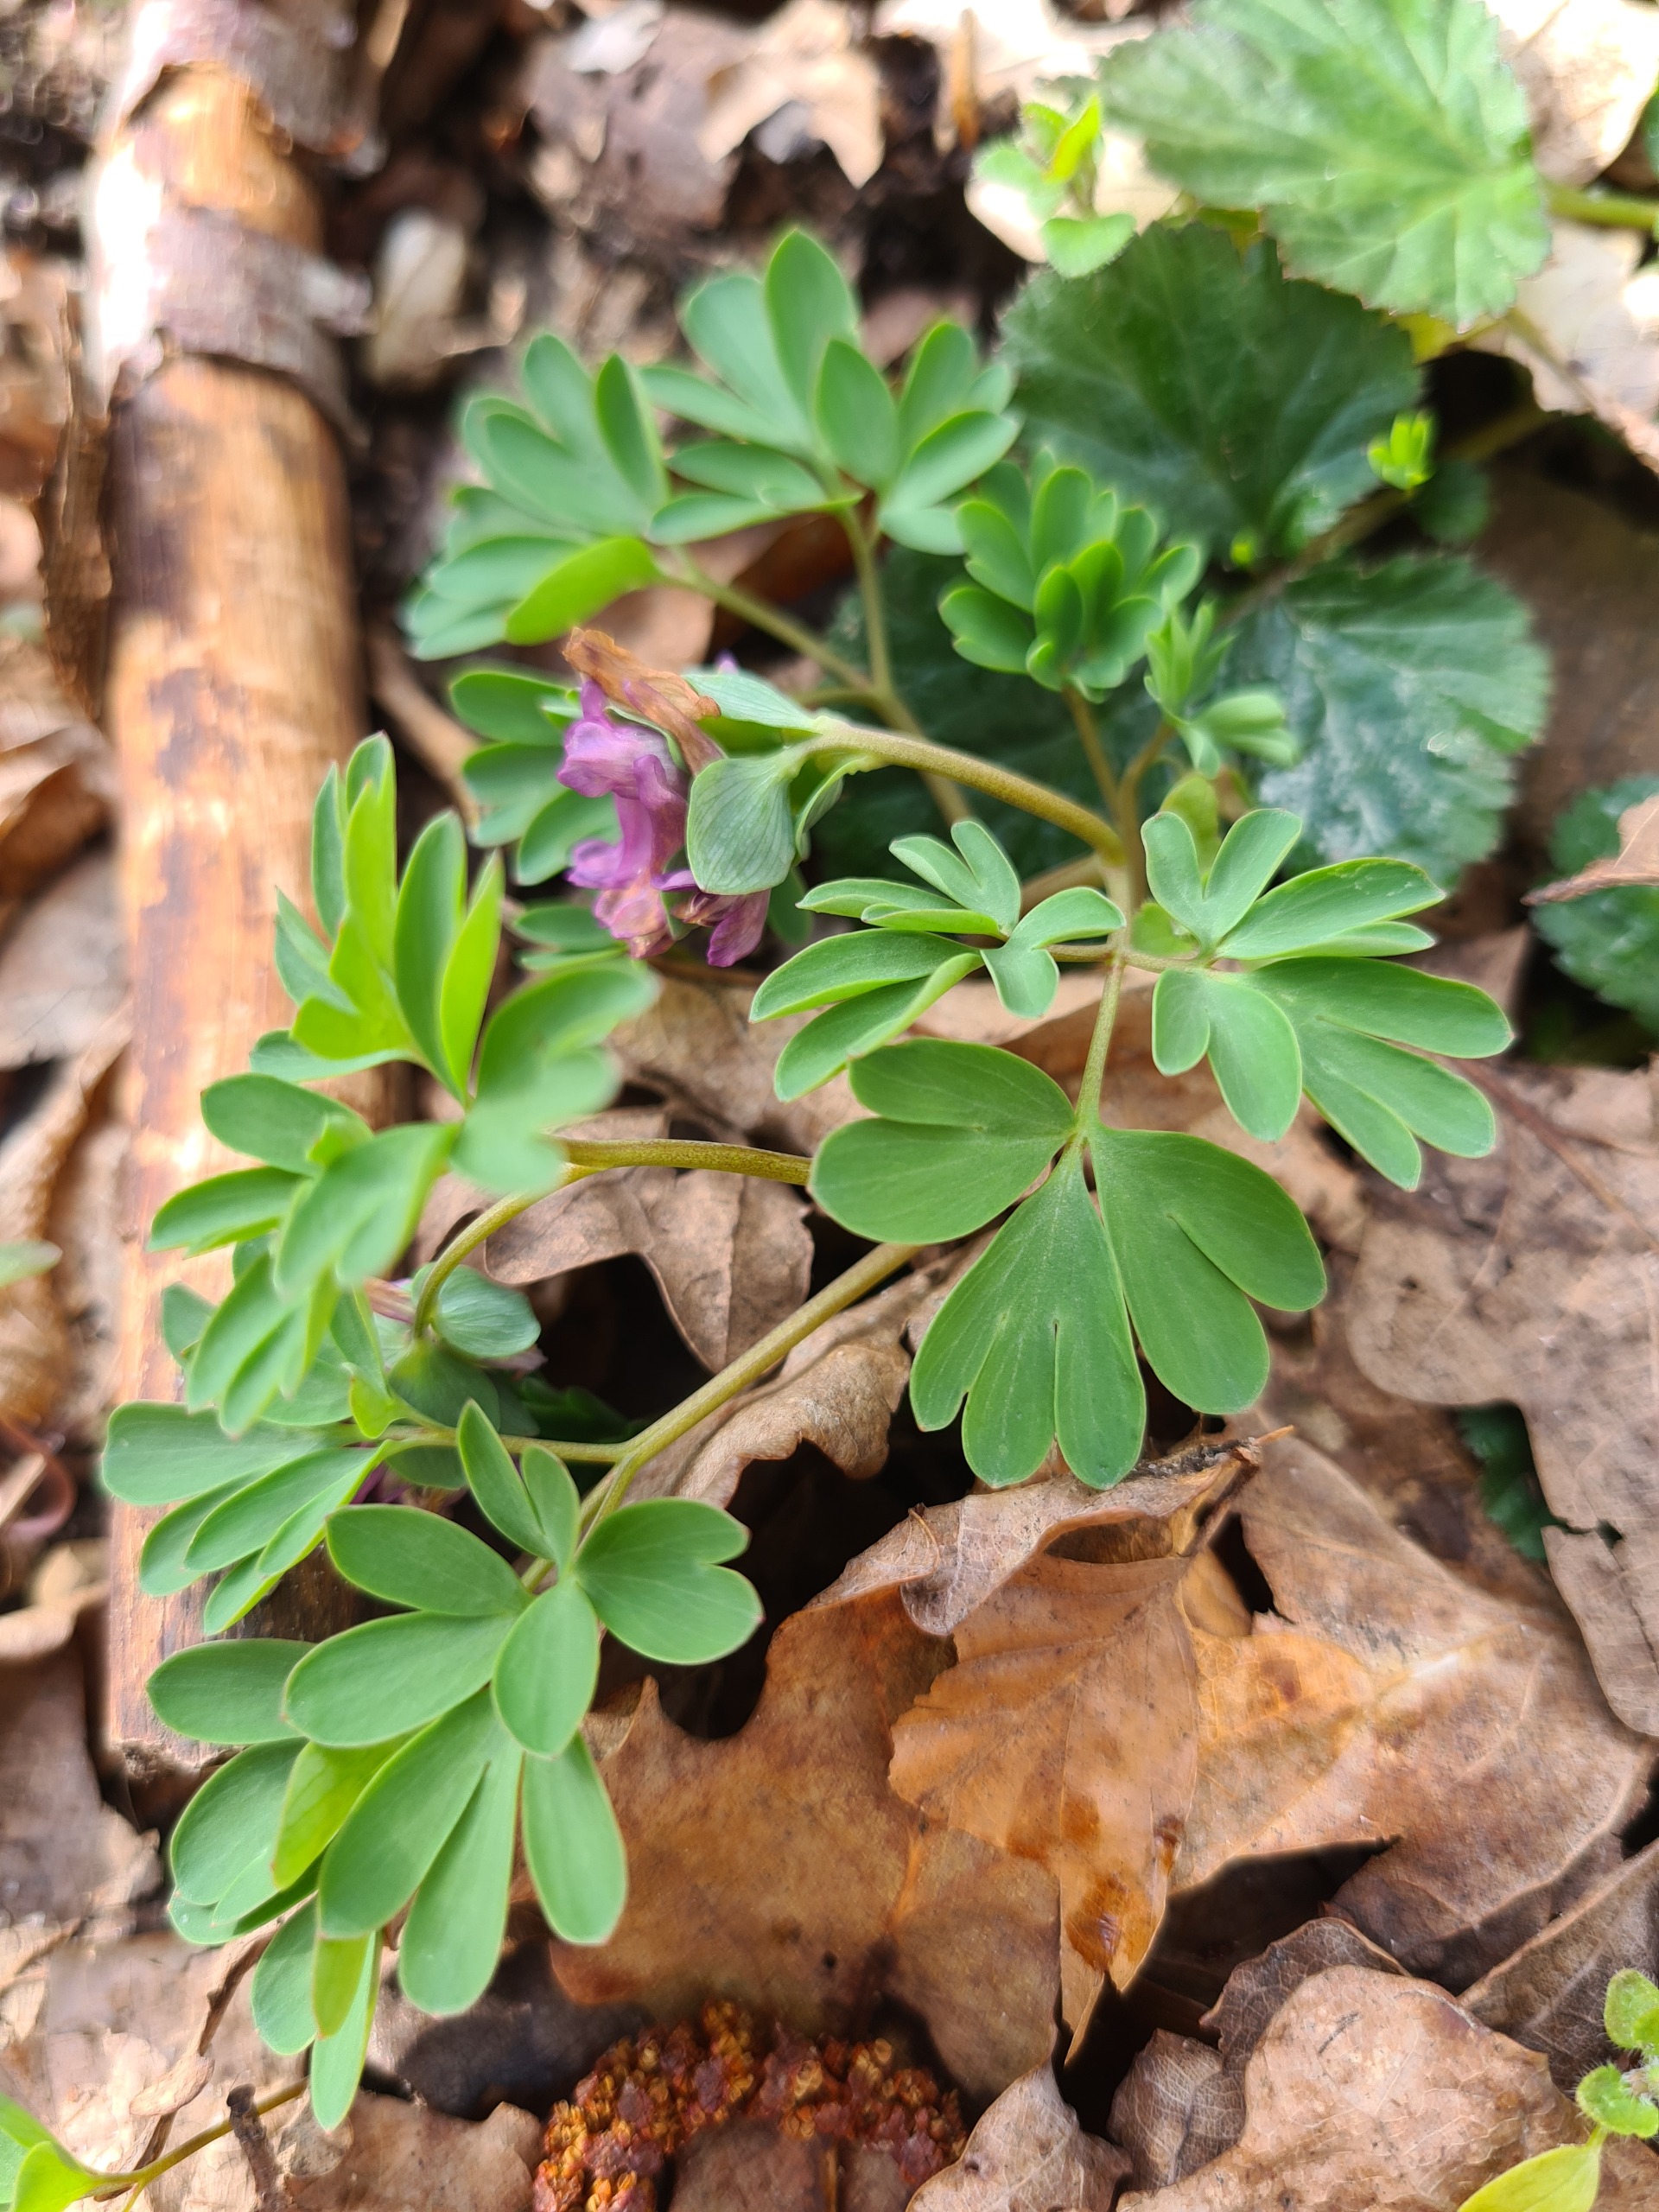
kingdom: Plantae
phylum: Tracheophyta
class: Magnoliopsida
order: Ranunculales
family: Papaveraceae
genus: Corydalis
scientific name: Corydalis intermedia
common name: Liden lærkespore
